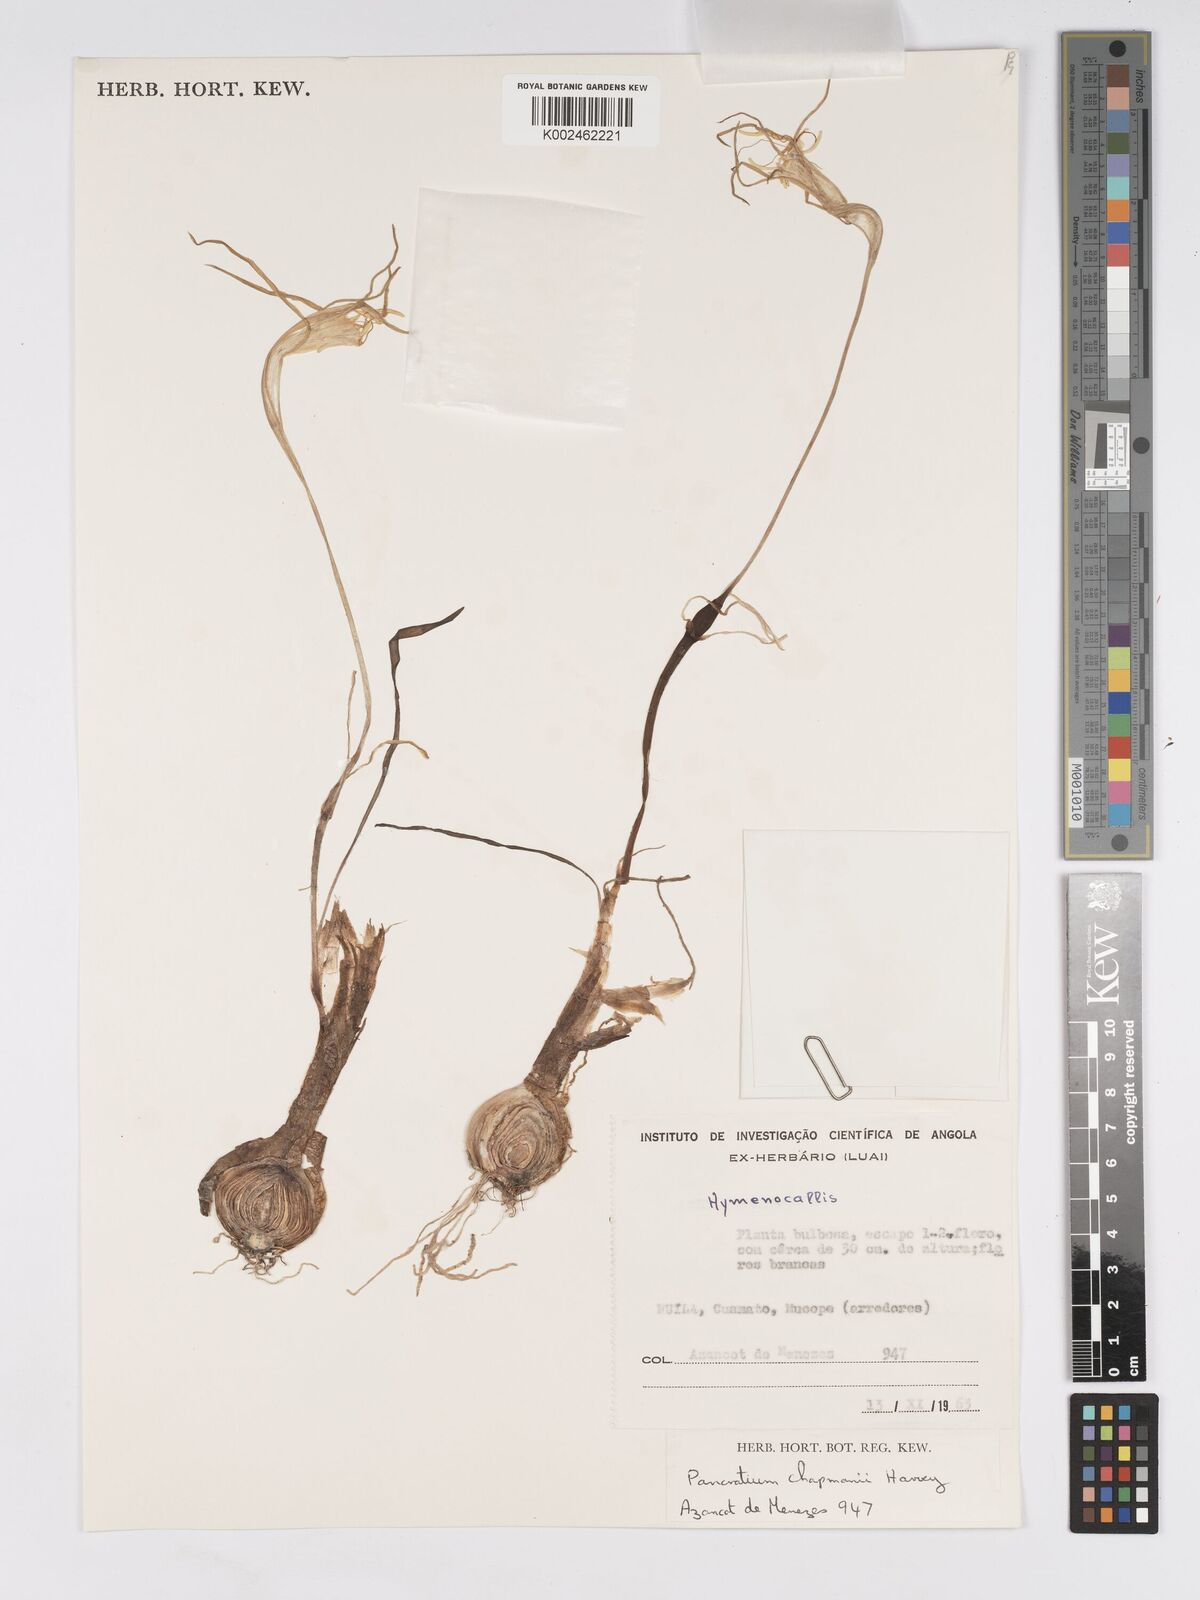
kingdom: Plantae
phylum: Tracheophyta
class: Liliopsida
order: Asparagales
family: Amaryllidaceae
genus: Pancratium
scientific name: Pancratium tenuifolium
